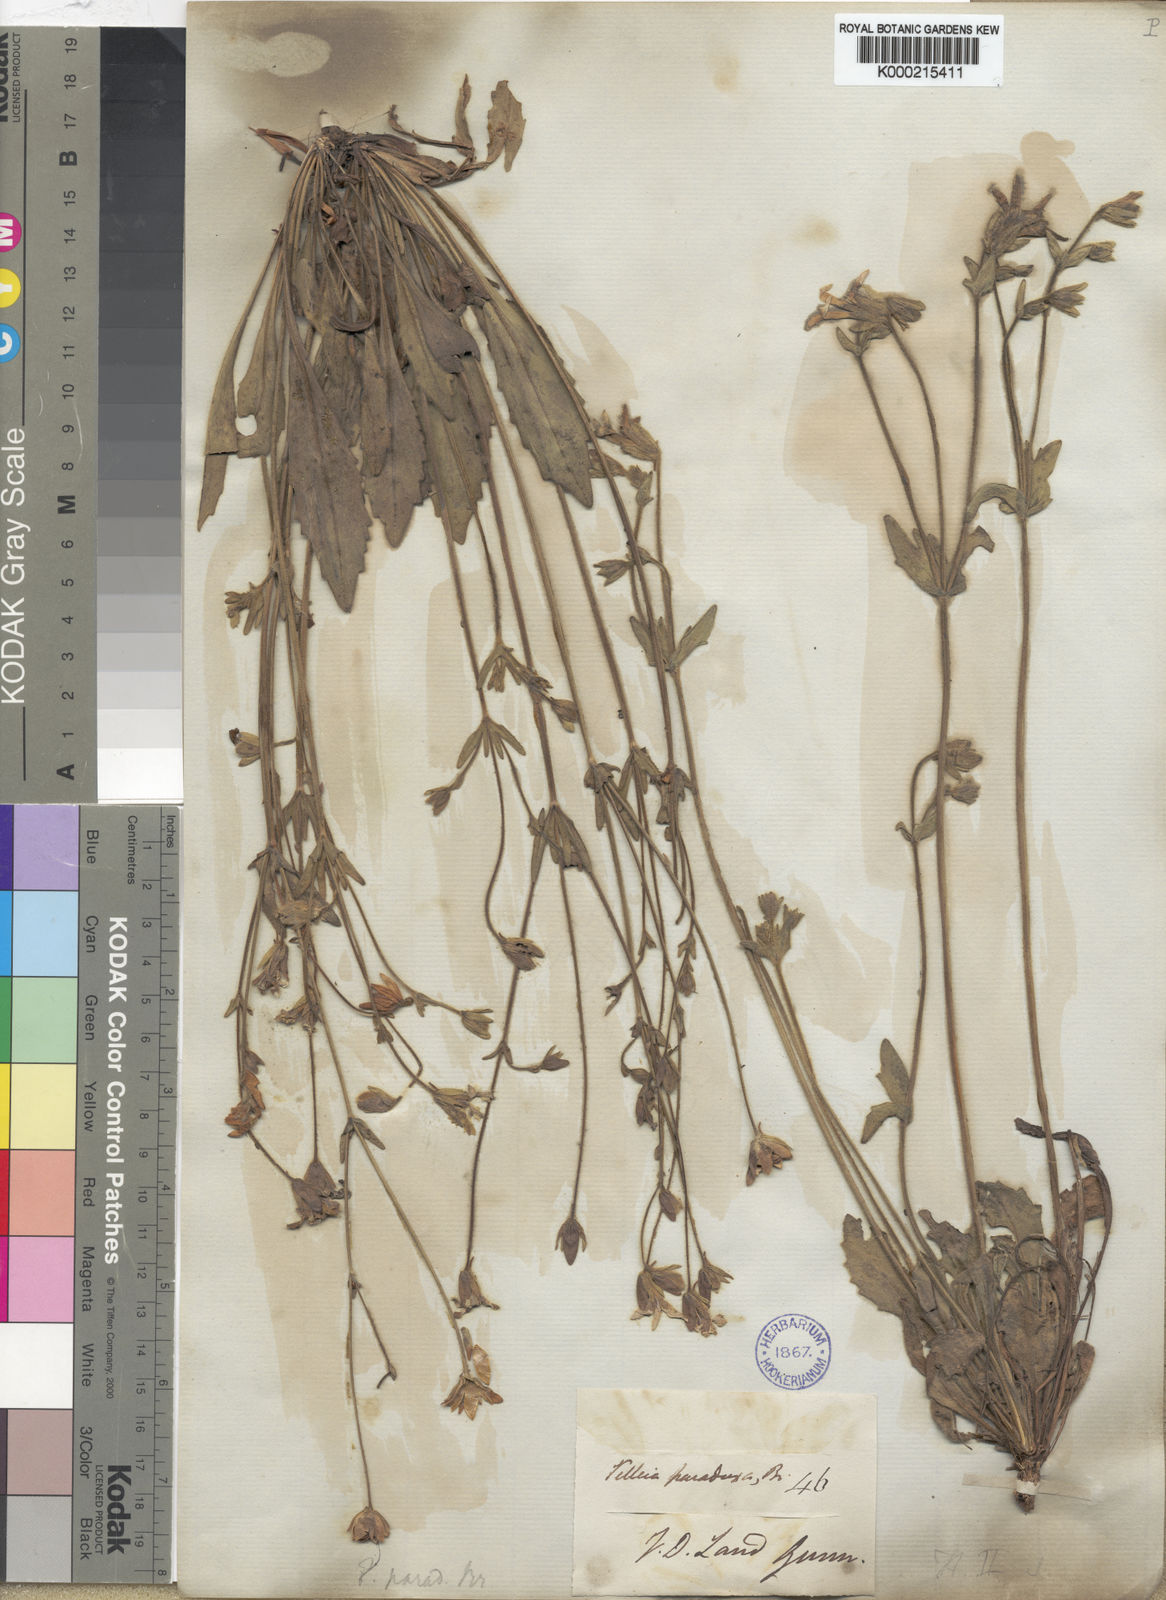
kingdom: Plantae
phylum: Tracheophyta
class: Magnoliopsida
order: Asterales
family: Goodeniaceae
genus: Goodenia
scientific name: Goodenia paradoxa
